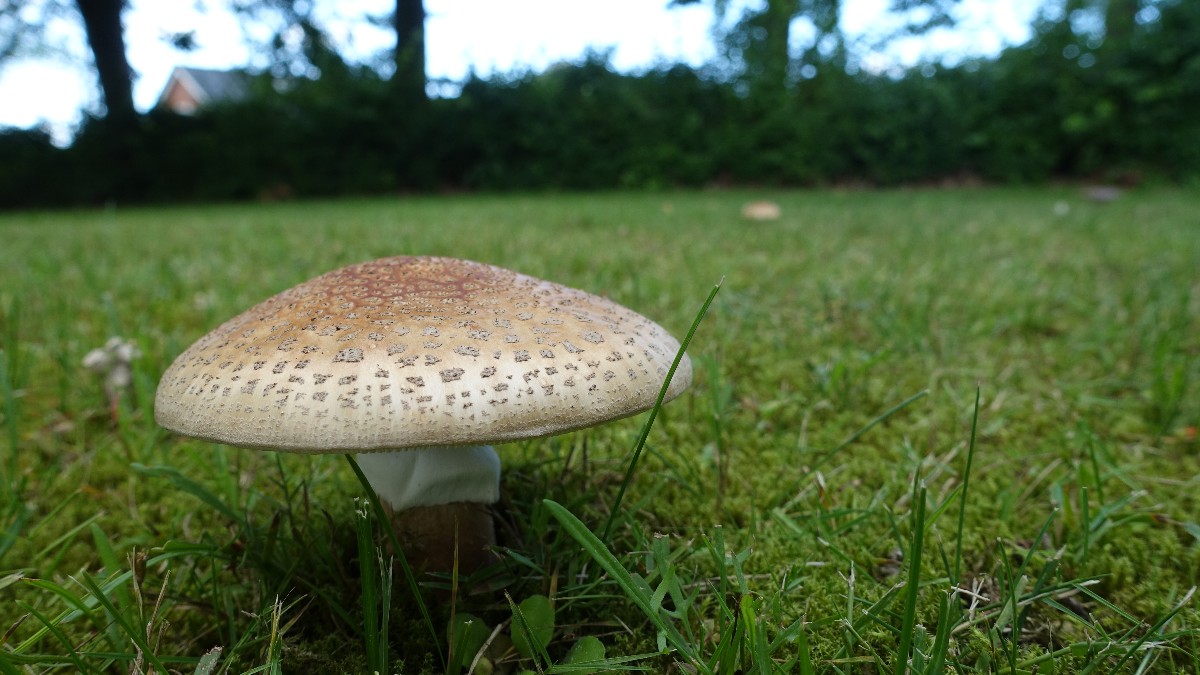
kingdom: Fungi
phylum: Basidiomycota
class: Agaricomycetes
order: Agaricales
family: Amanitaceae
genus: Amanita
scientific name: Amanita rubescens
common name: rødmende fluesvamp
